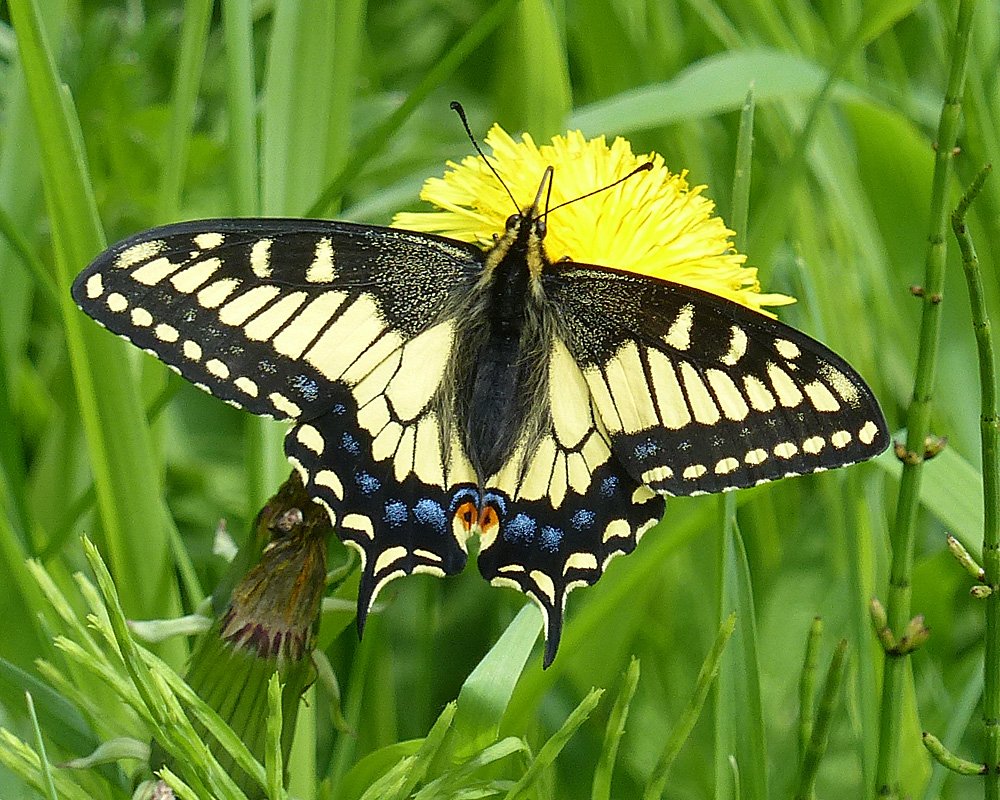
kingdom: Animalia
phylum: Arthropoda
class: Insecta
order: Lepidoptera
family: Papilionidae
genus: Papilio
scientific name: Papilio zelicaon
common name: Anise Swallowtail
